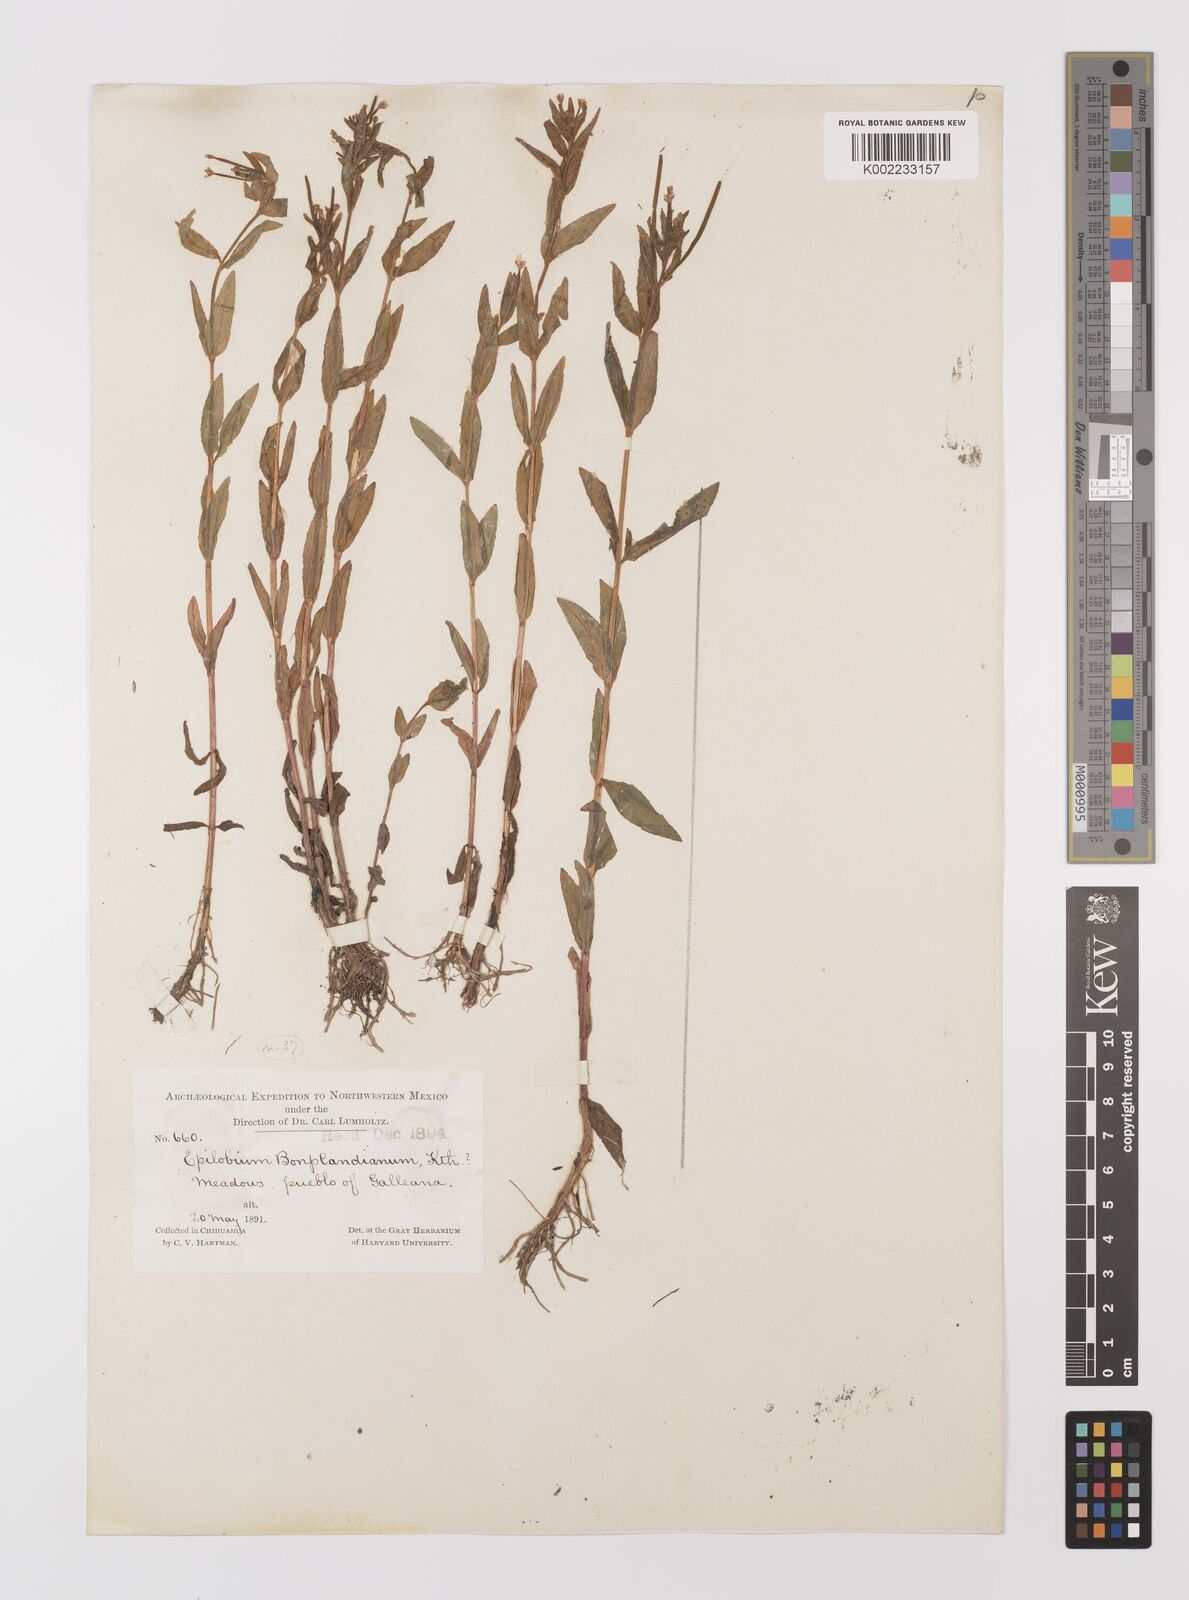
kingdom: Plantae
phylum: Tracheophyta
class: Magnoliopsida
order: Myrtales
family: Onagraceae
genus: Epilobium
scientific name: Epilobium denticulatum
